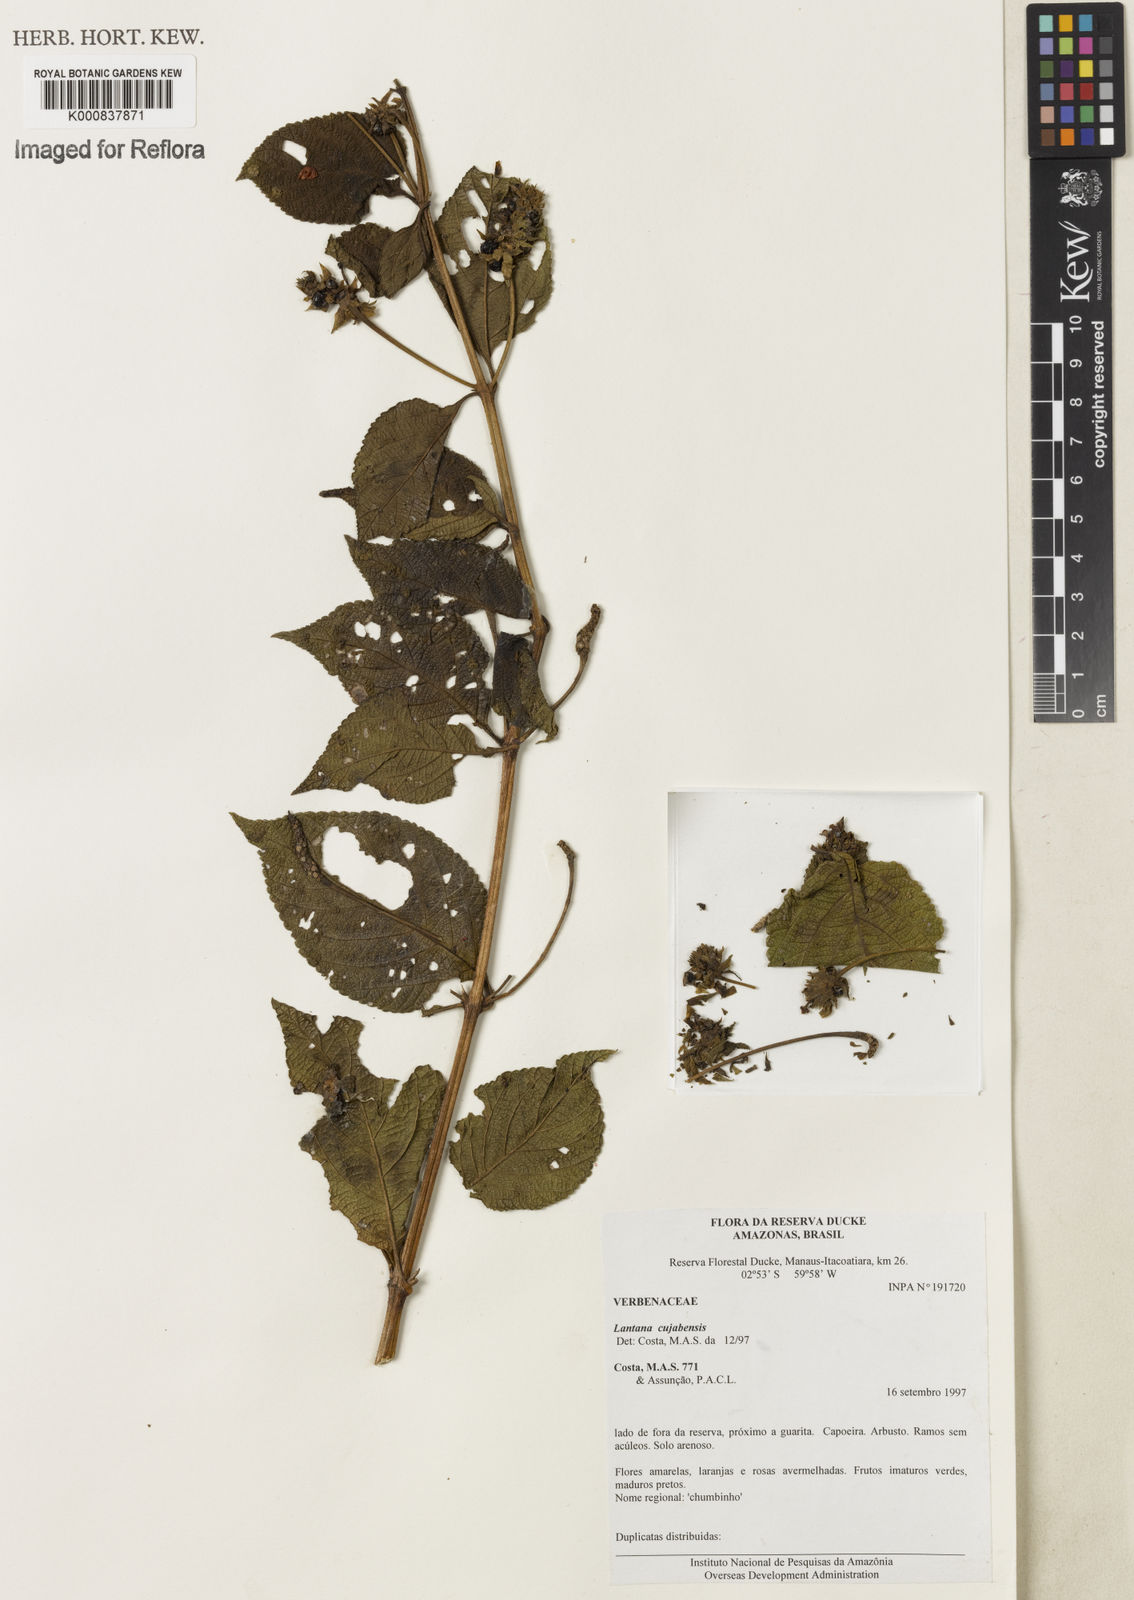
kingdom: Plantae
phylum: Tracheophyta
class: Magnoliopsida
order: Lamiales
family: Verbenaceae
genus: Lantana
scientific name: Lantana cujabensis
